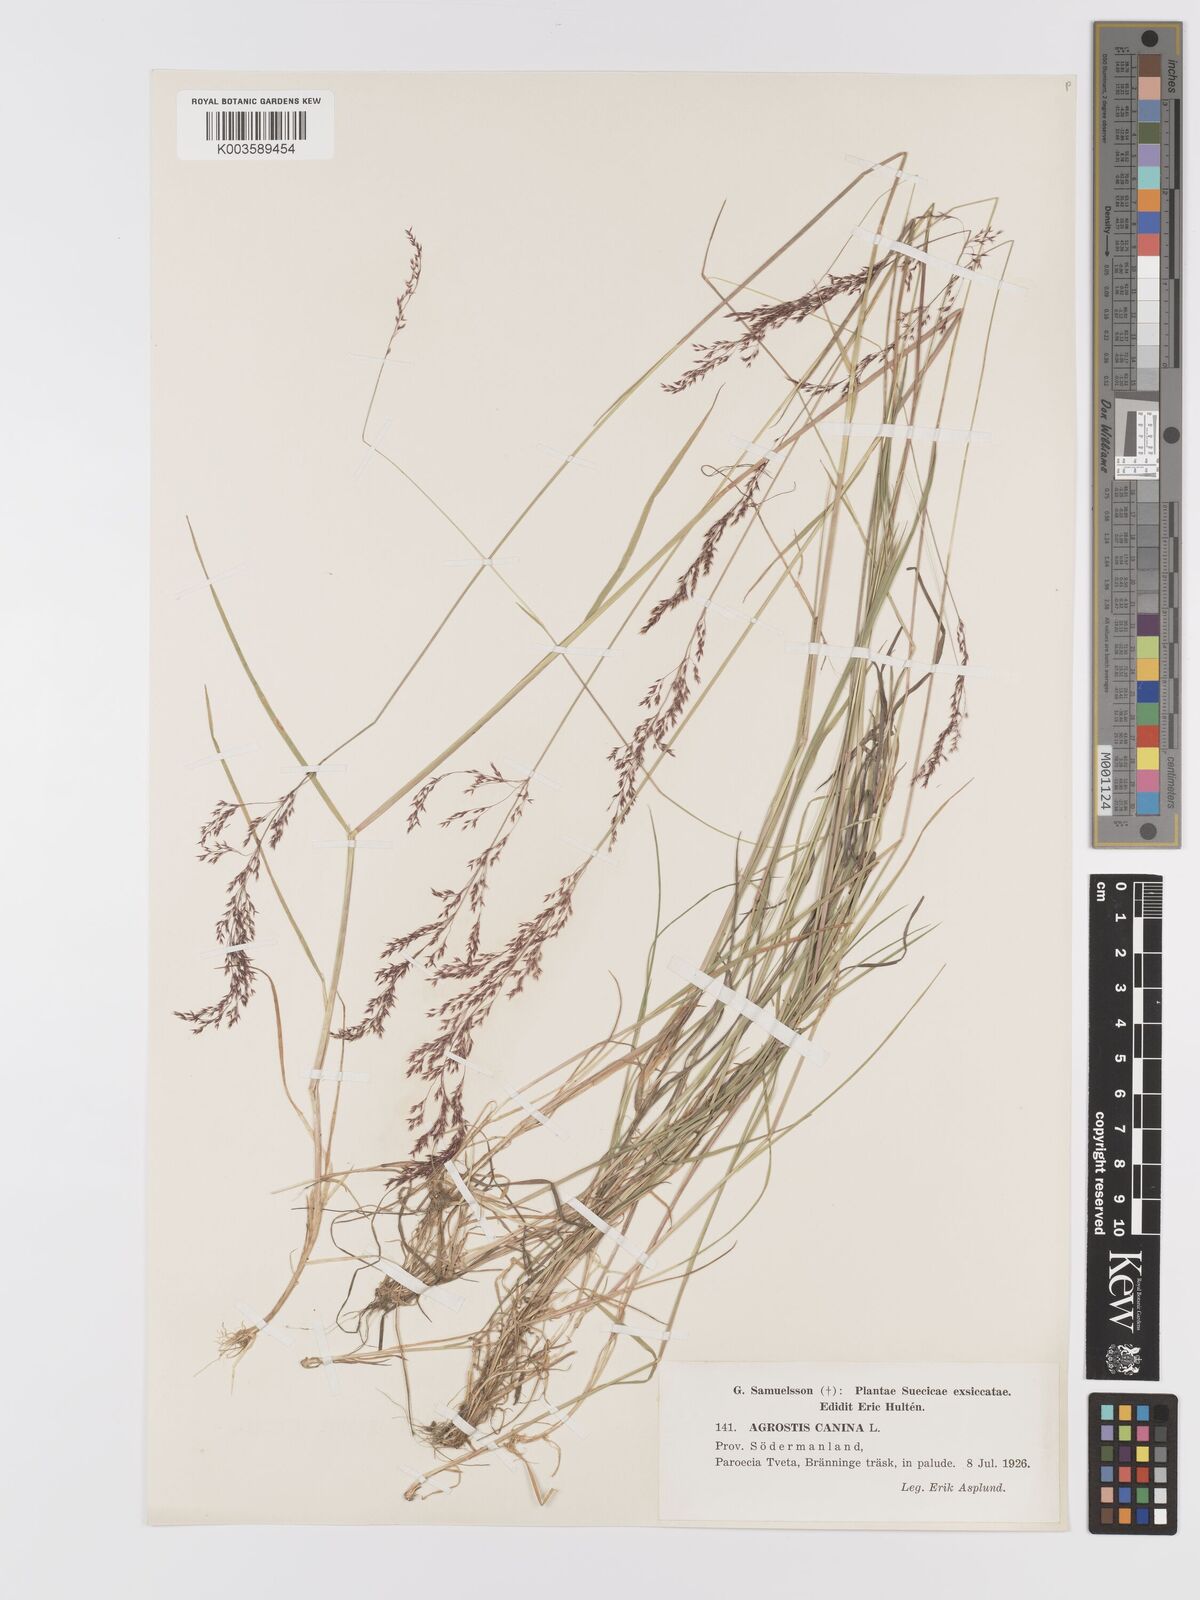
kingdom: Plantae
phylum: Tracheophyta
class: Liliopsida
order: Poales
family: Poaceae
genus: Agrostis
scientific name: Agrostis canina
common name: Velvet bent
